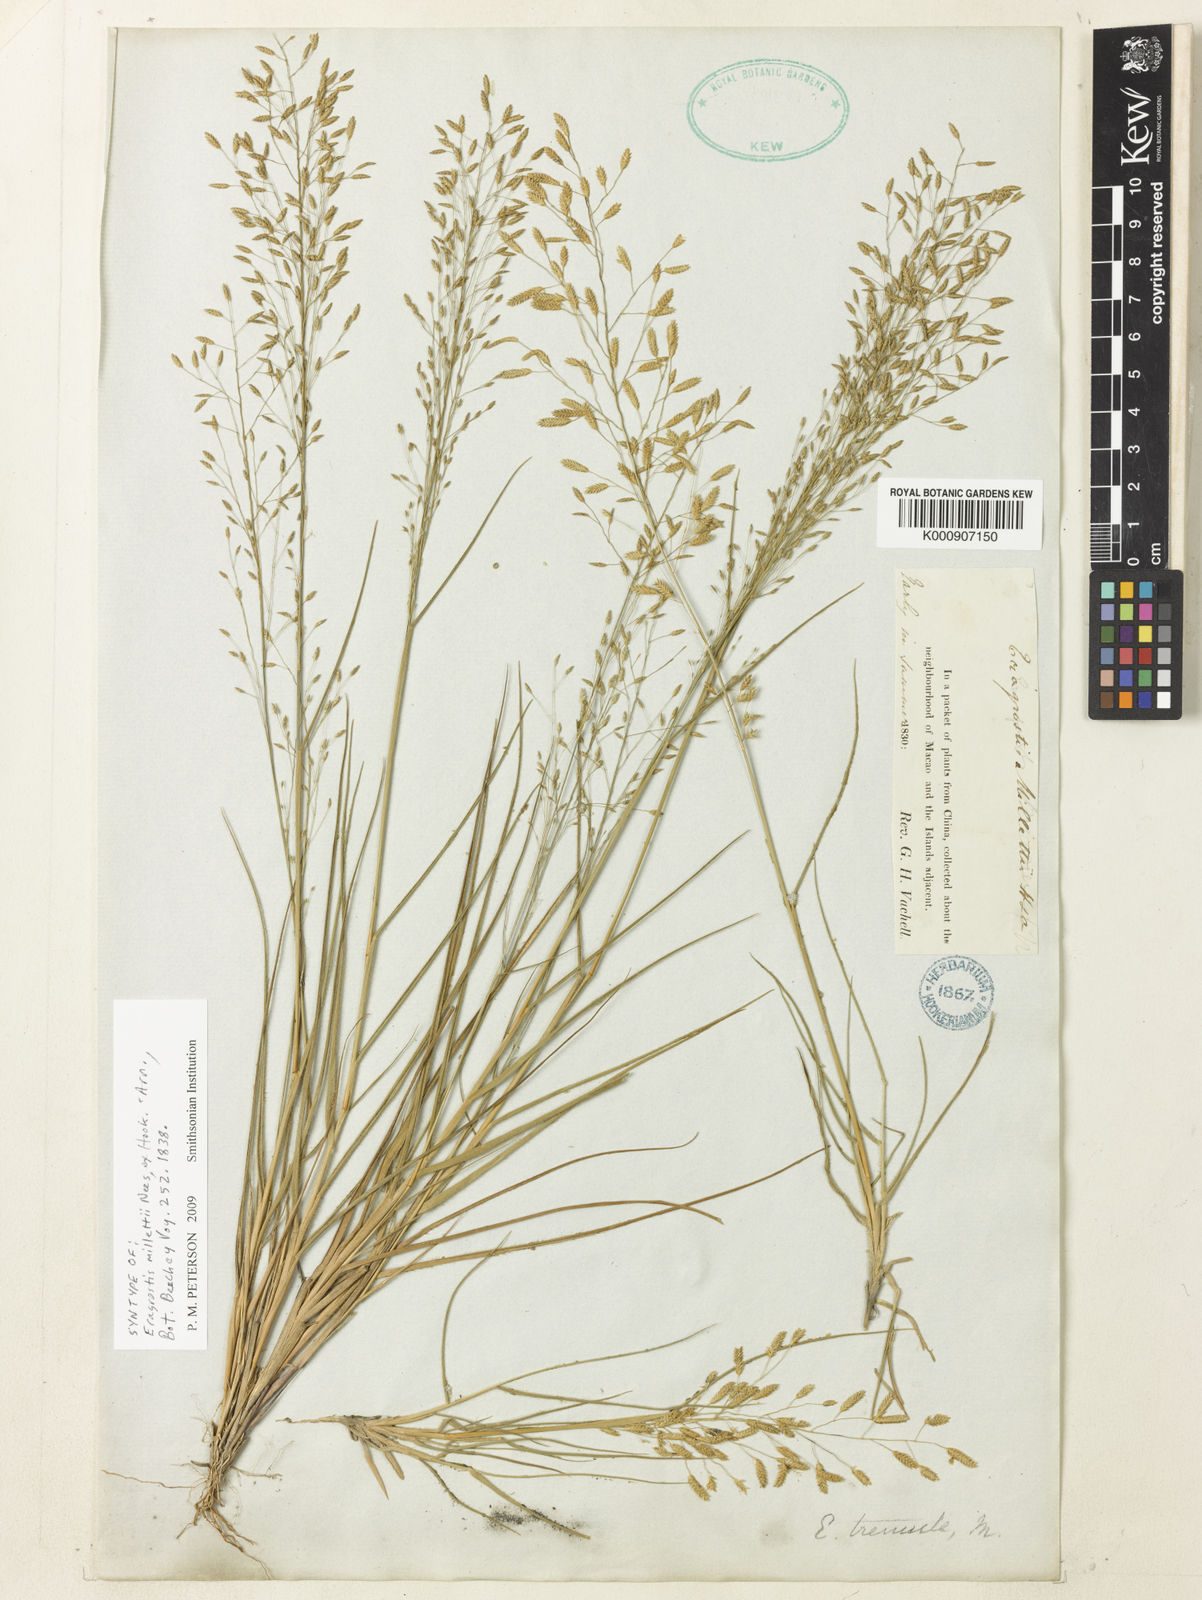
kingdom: Plantae
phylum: Tracheophyta
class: Liliopsida
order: Poales
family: Poaceae
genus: Eragrostis
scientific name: Eragrostis pilosissima
